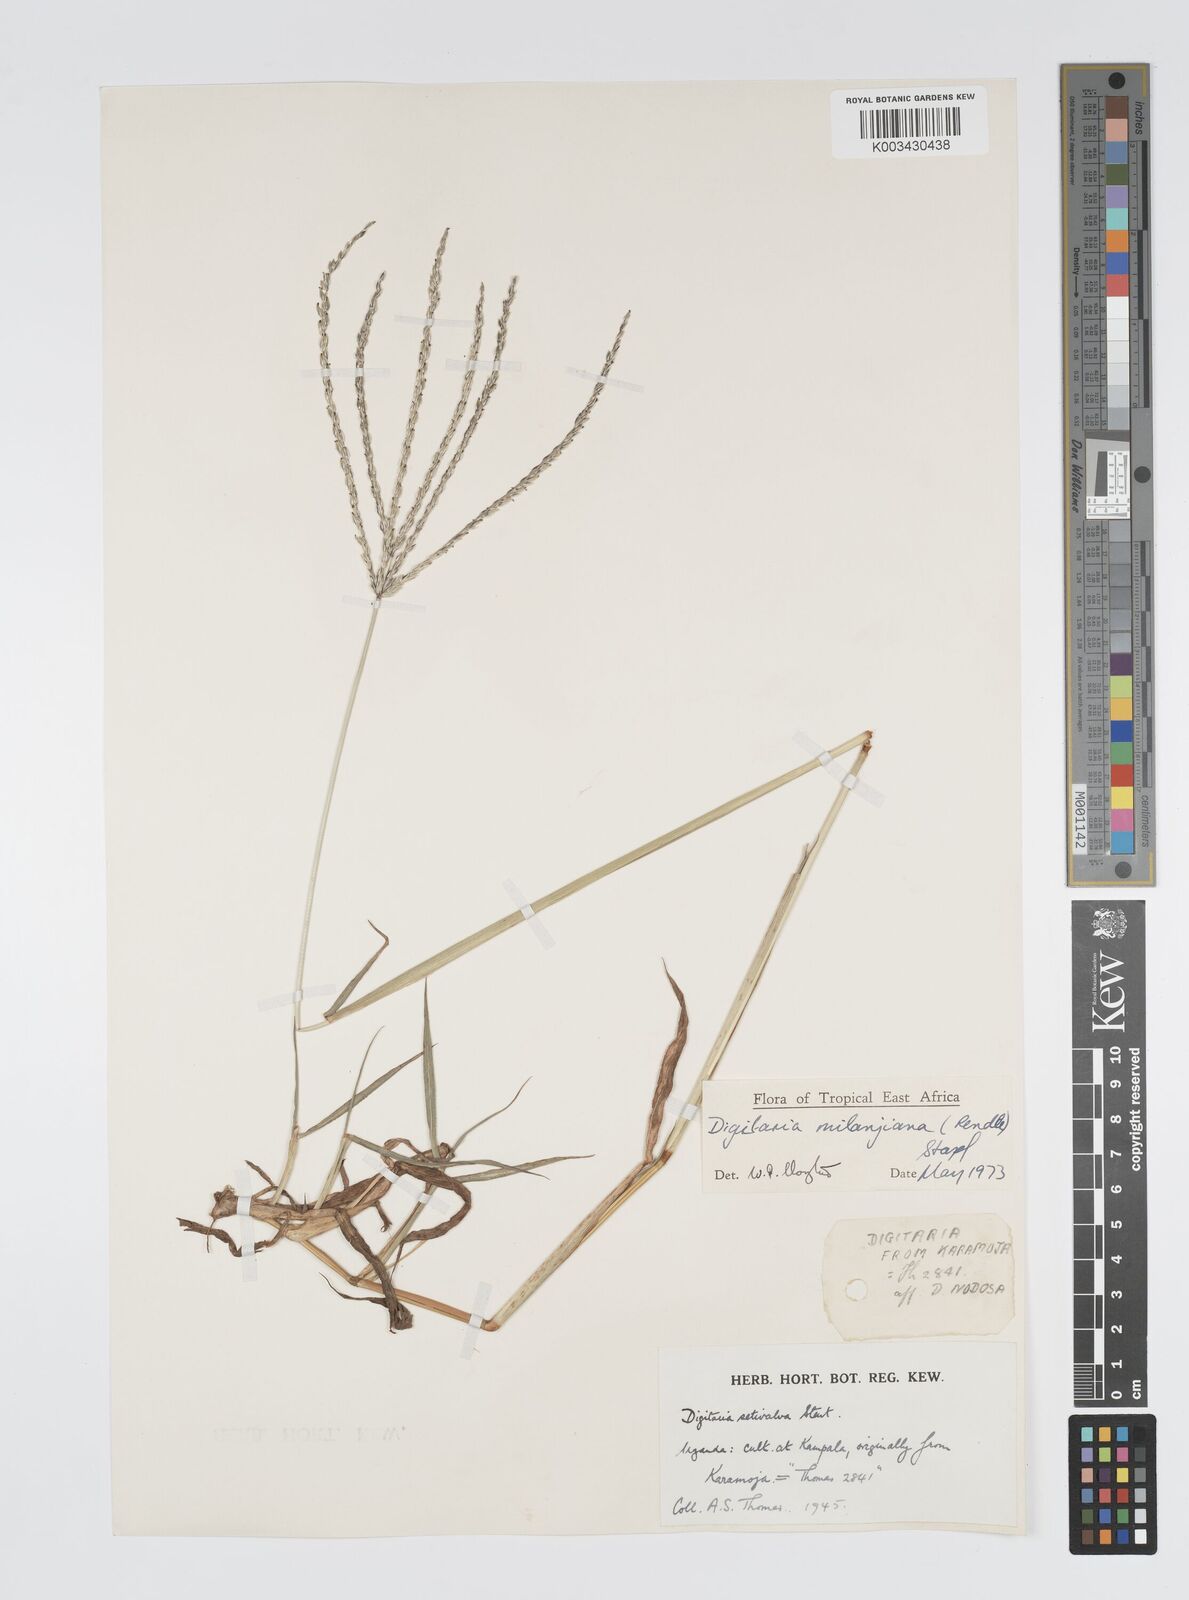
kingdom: Plantae
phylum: Tracheophyta
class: Liliopsida
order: Poales
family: Poaceae
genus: Digitaria
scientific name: Digitaria milanjiana
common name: Madagascar crabgrass
